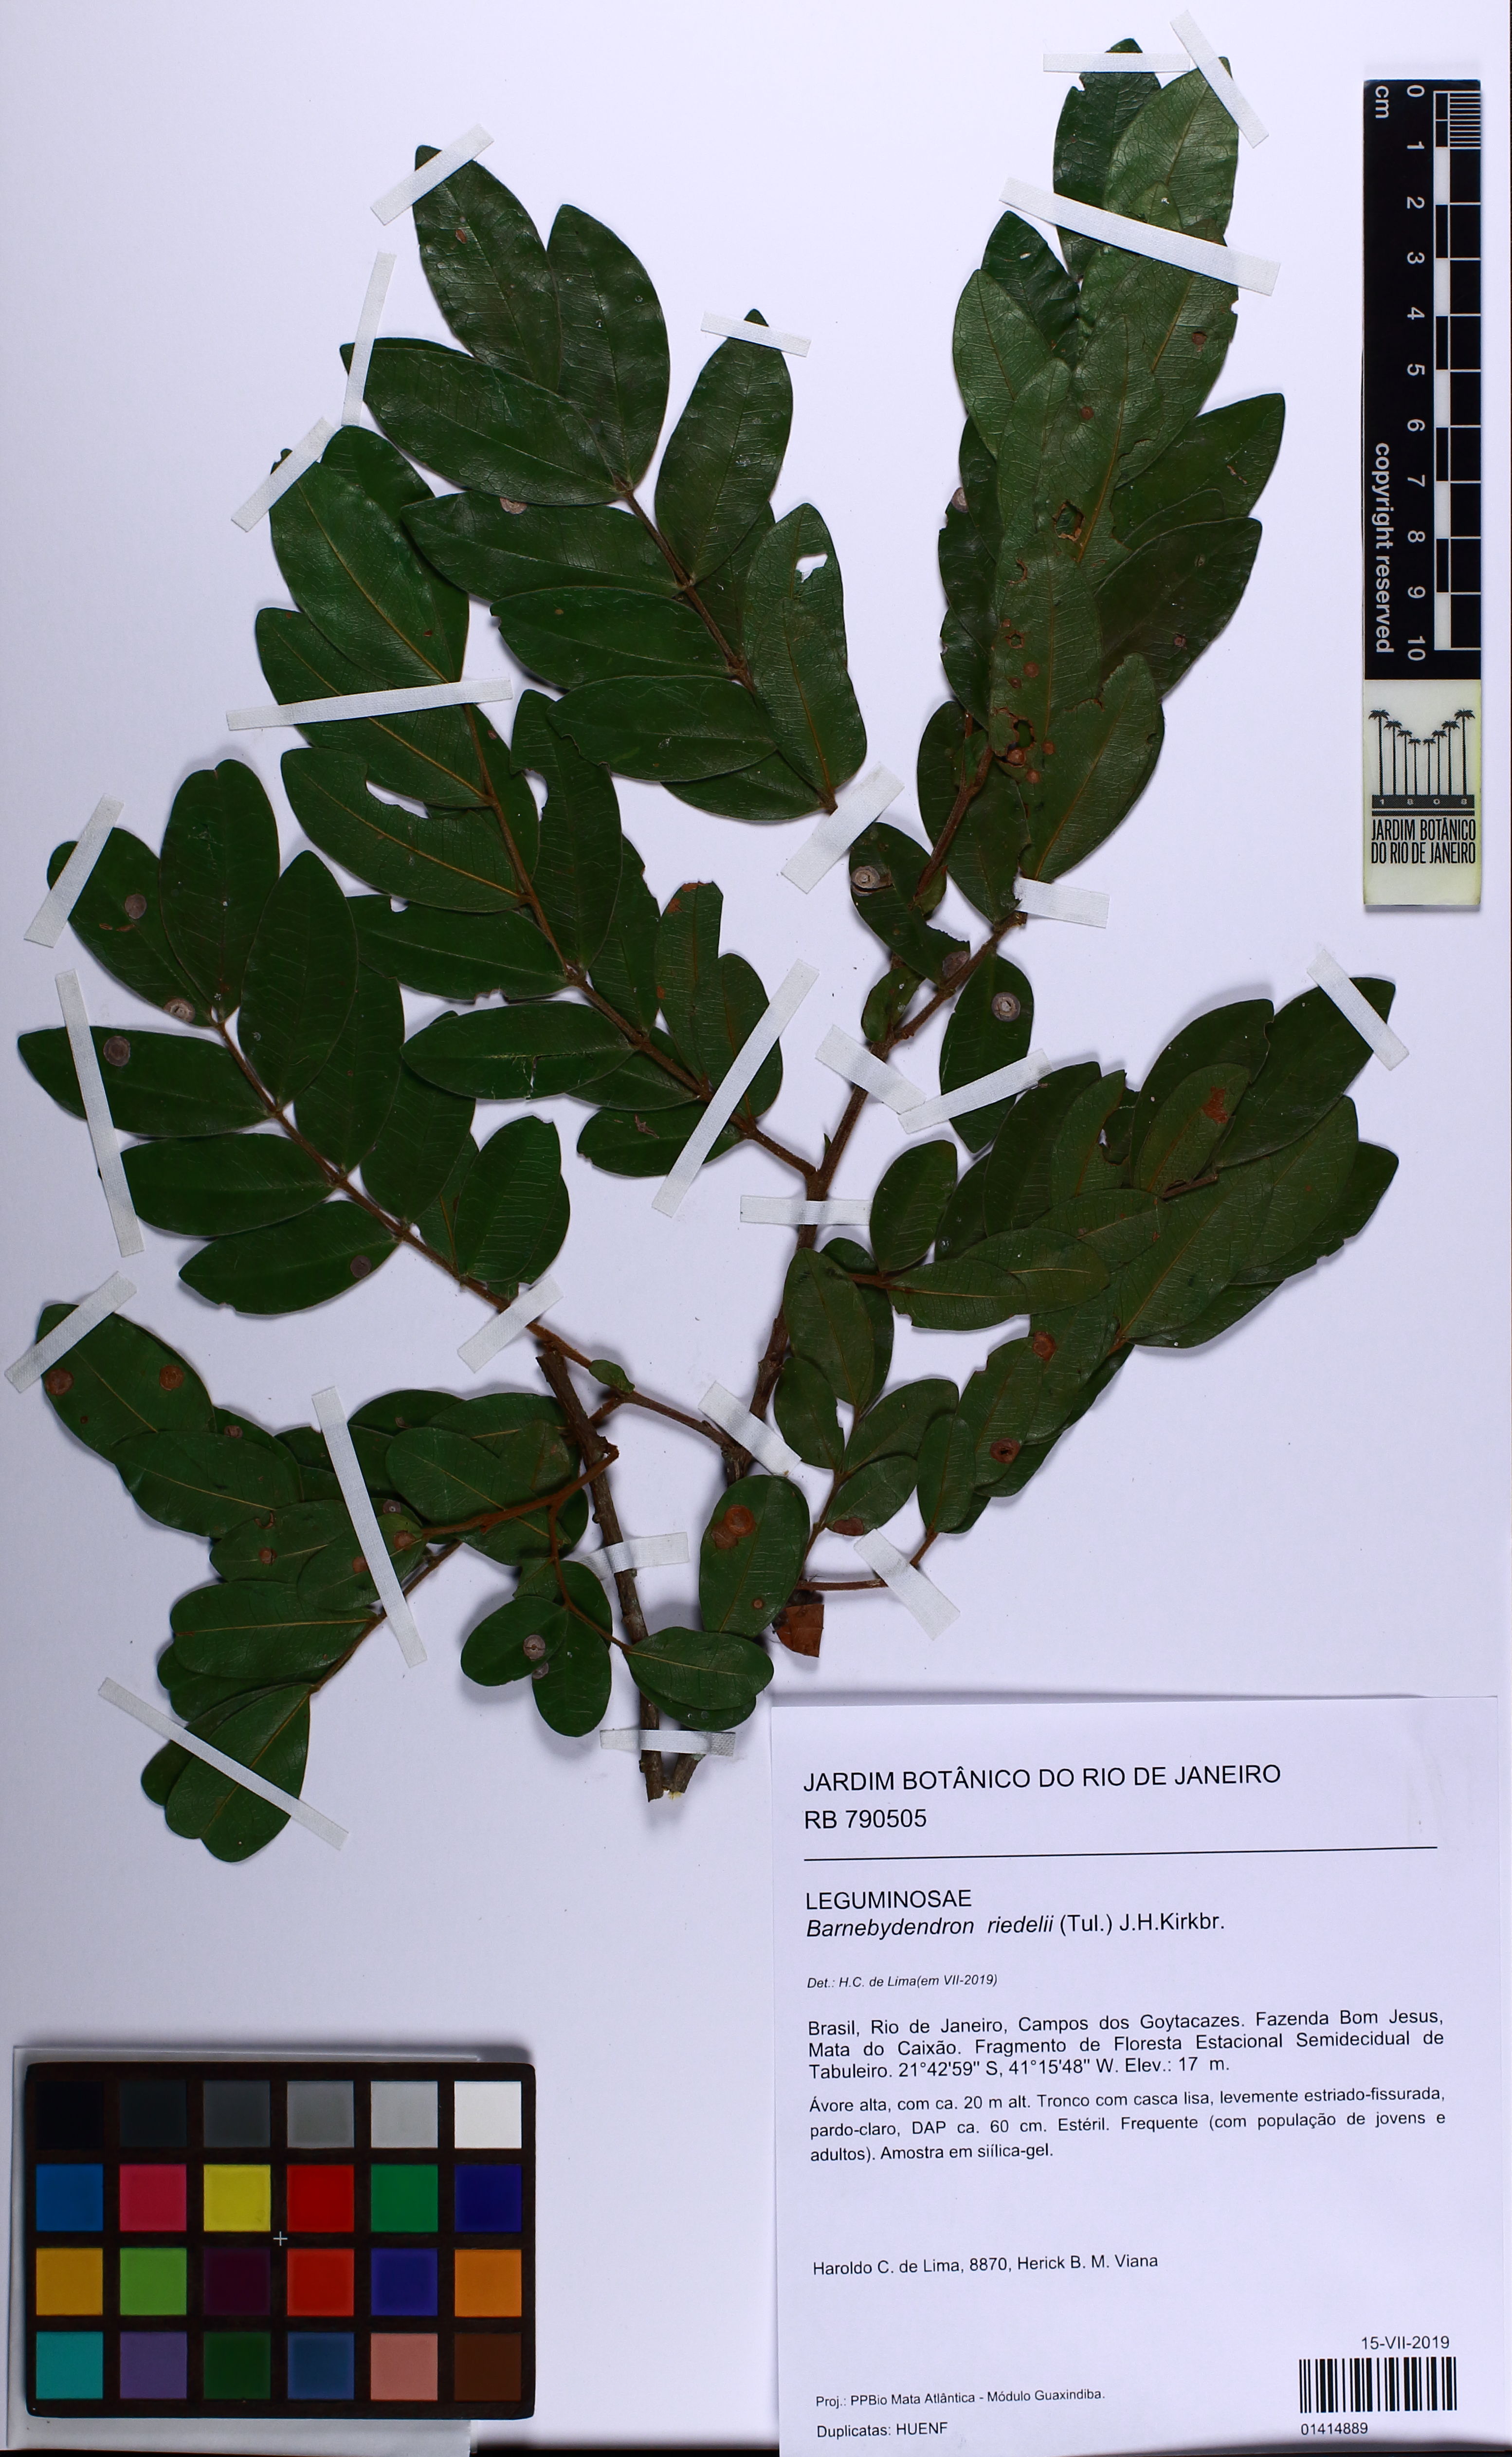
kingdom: Plantae
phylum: Tracheophyta
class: Magnoliopsida
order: Fabales
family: Fabaceae
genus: Barnebydendron
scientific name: Barnebydendron riedelii
